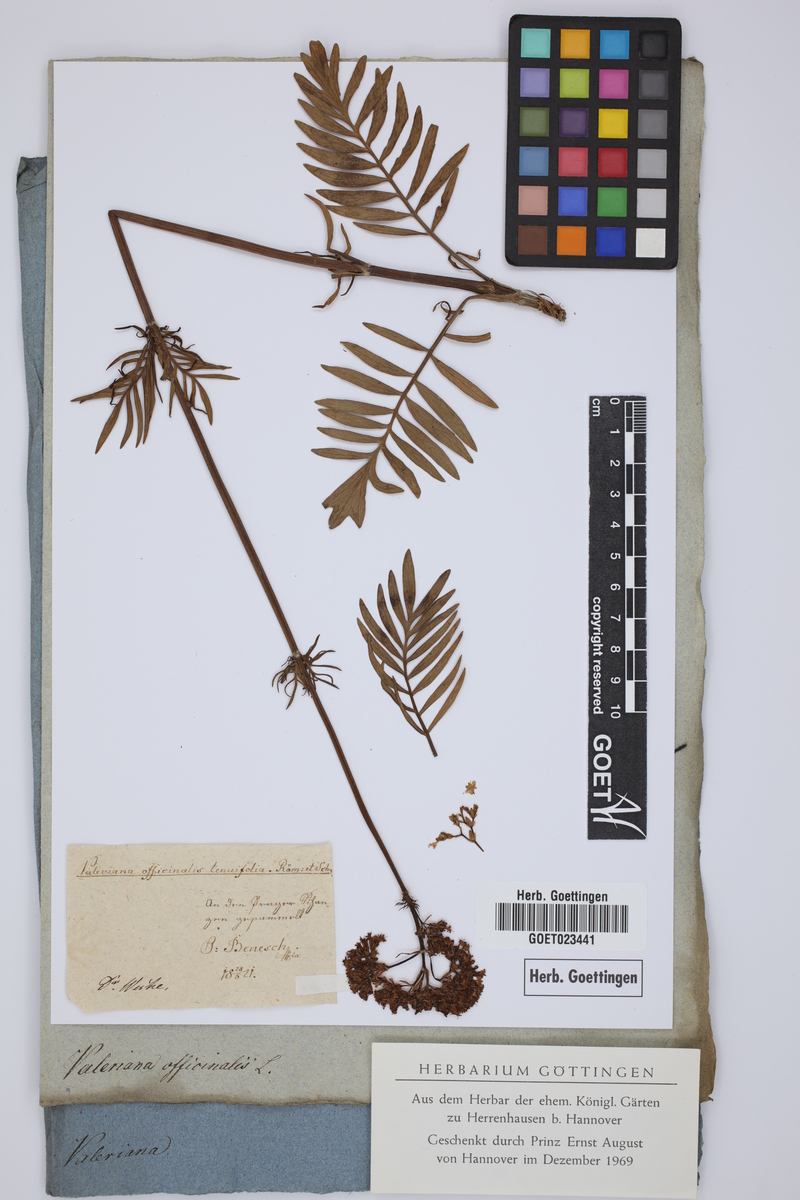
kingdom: Plantae
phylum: Tracheophyta
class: Magnoliopsida
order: Dipsacales
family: Caprifoliaceae
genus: Valeriana
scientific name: Valeriana officinalis
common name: Common valerian
